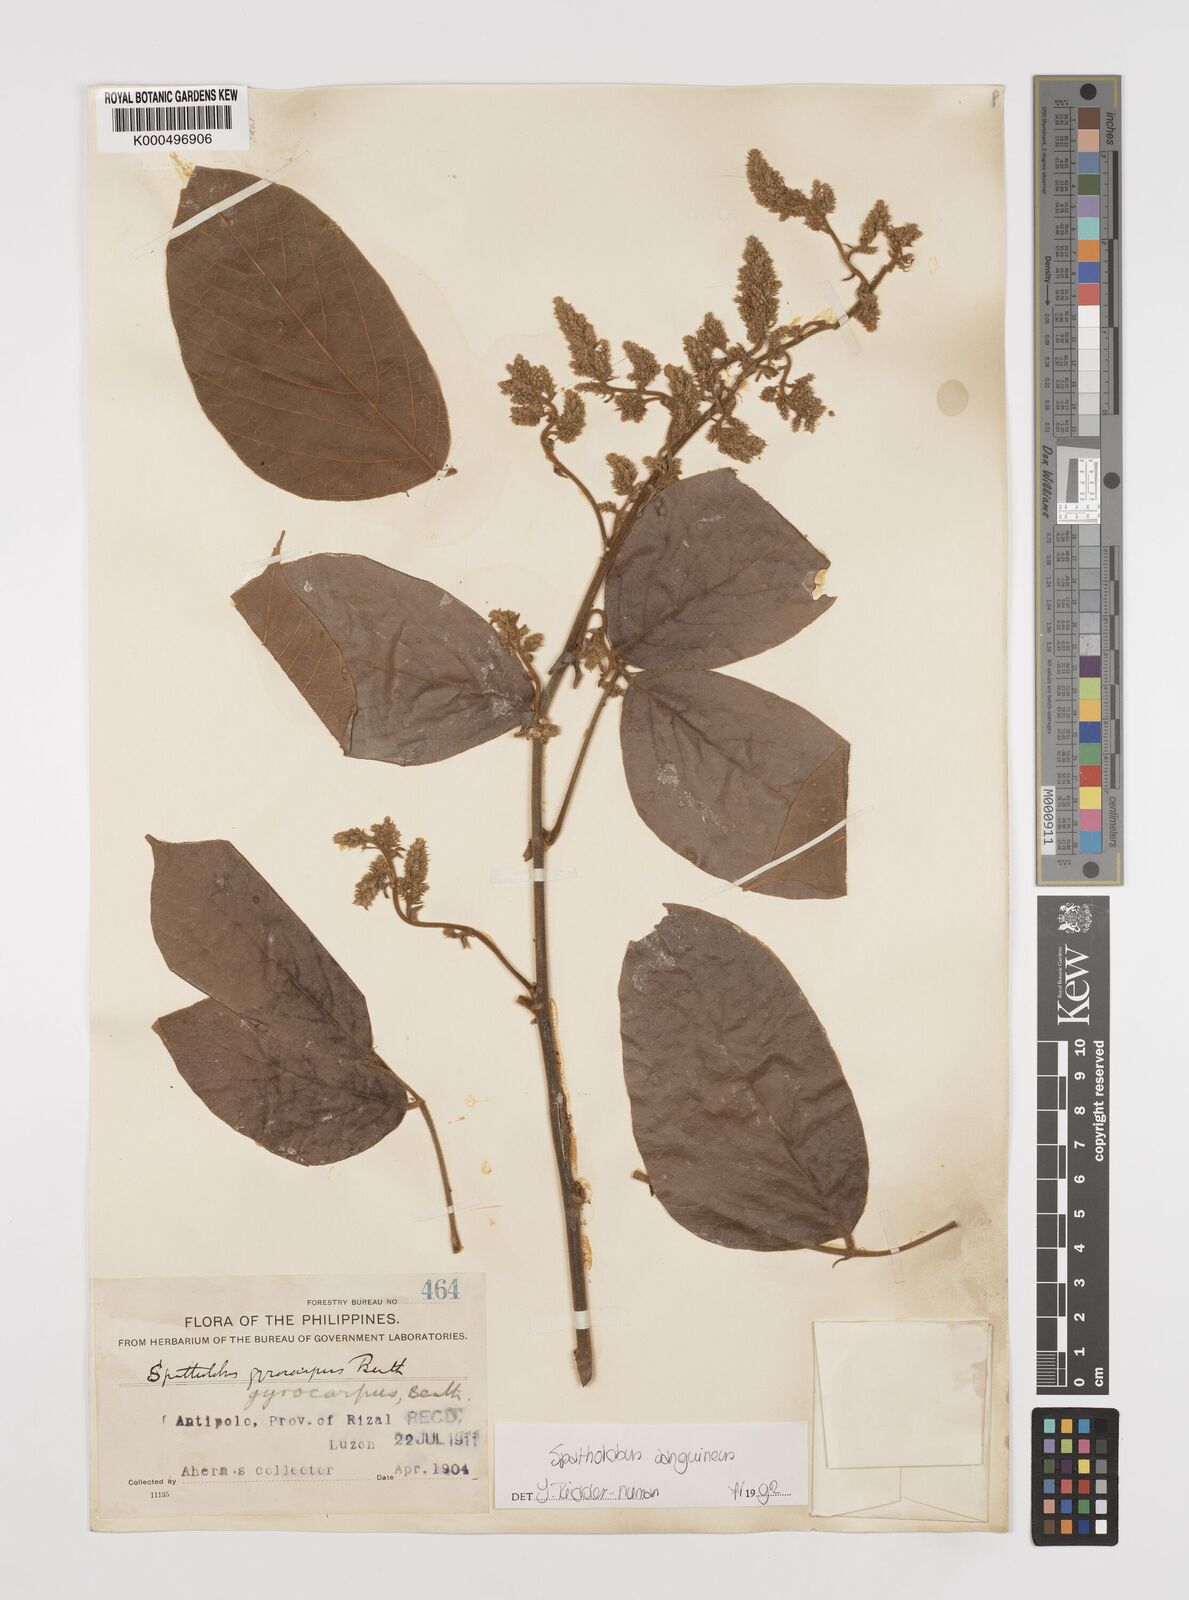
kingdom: Plantae
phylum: Tracheophyta
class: Magnoliopsida
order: Fabales
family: Fabaceae
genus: Spatholobus
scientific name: Spatholobus
